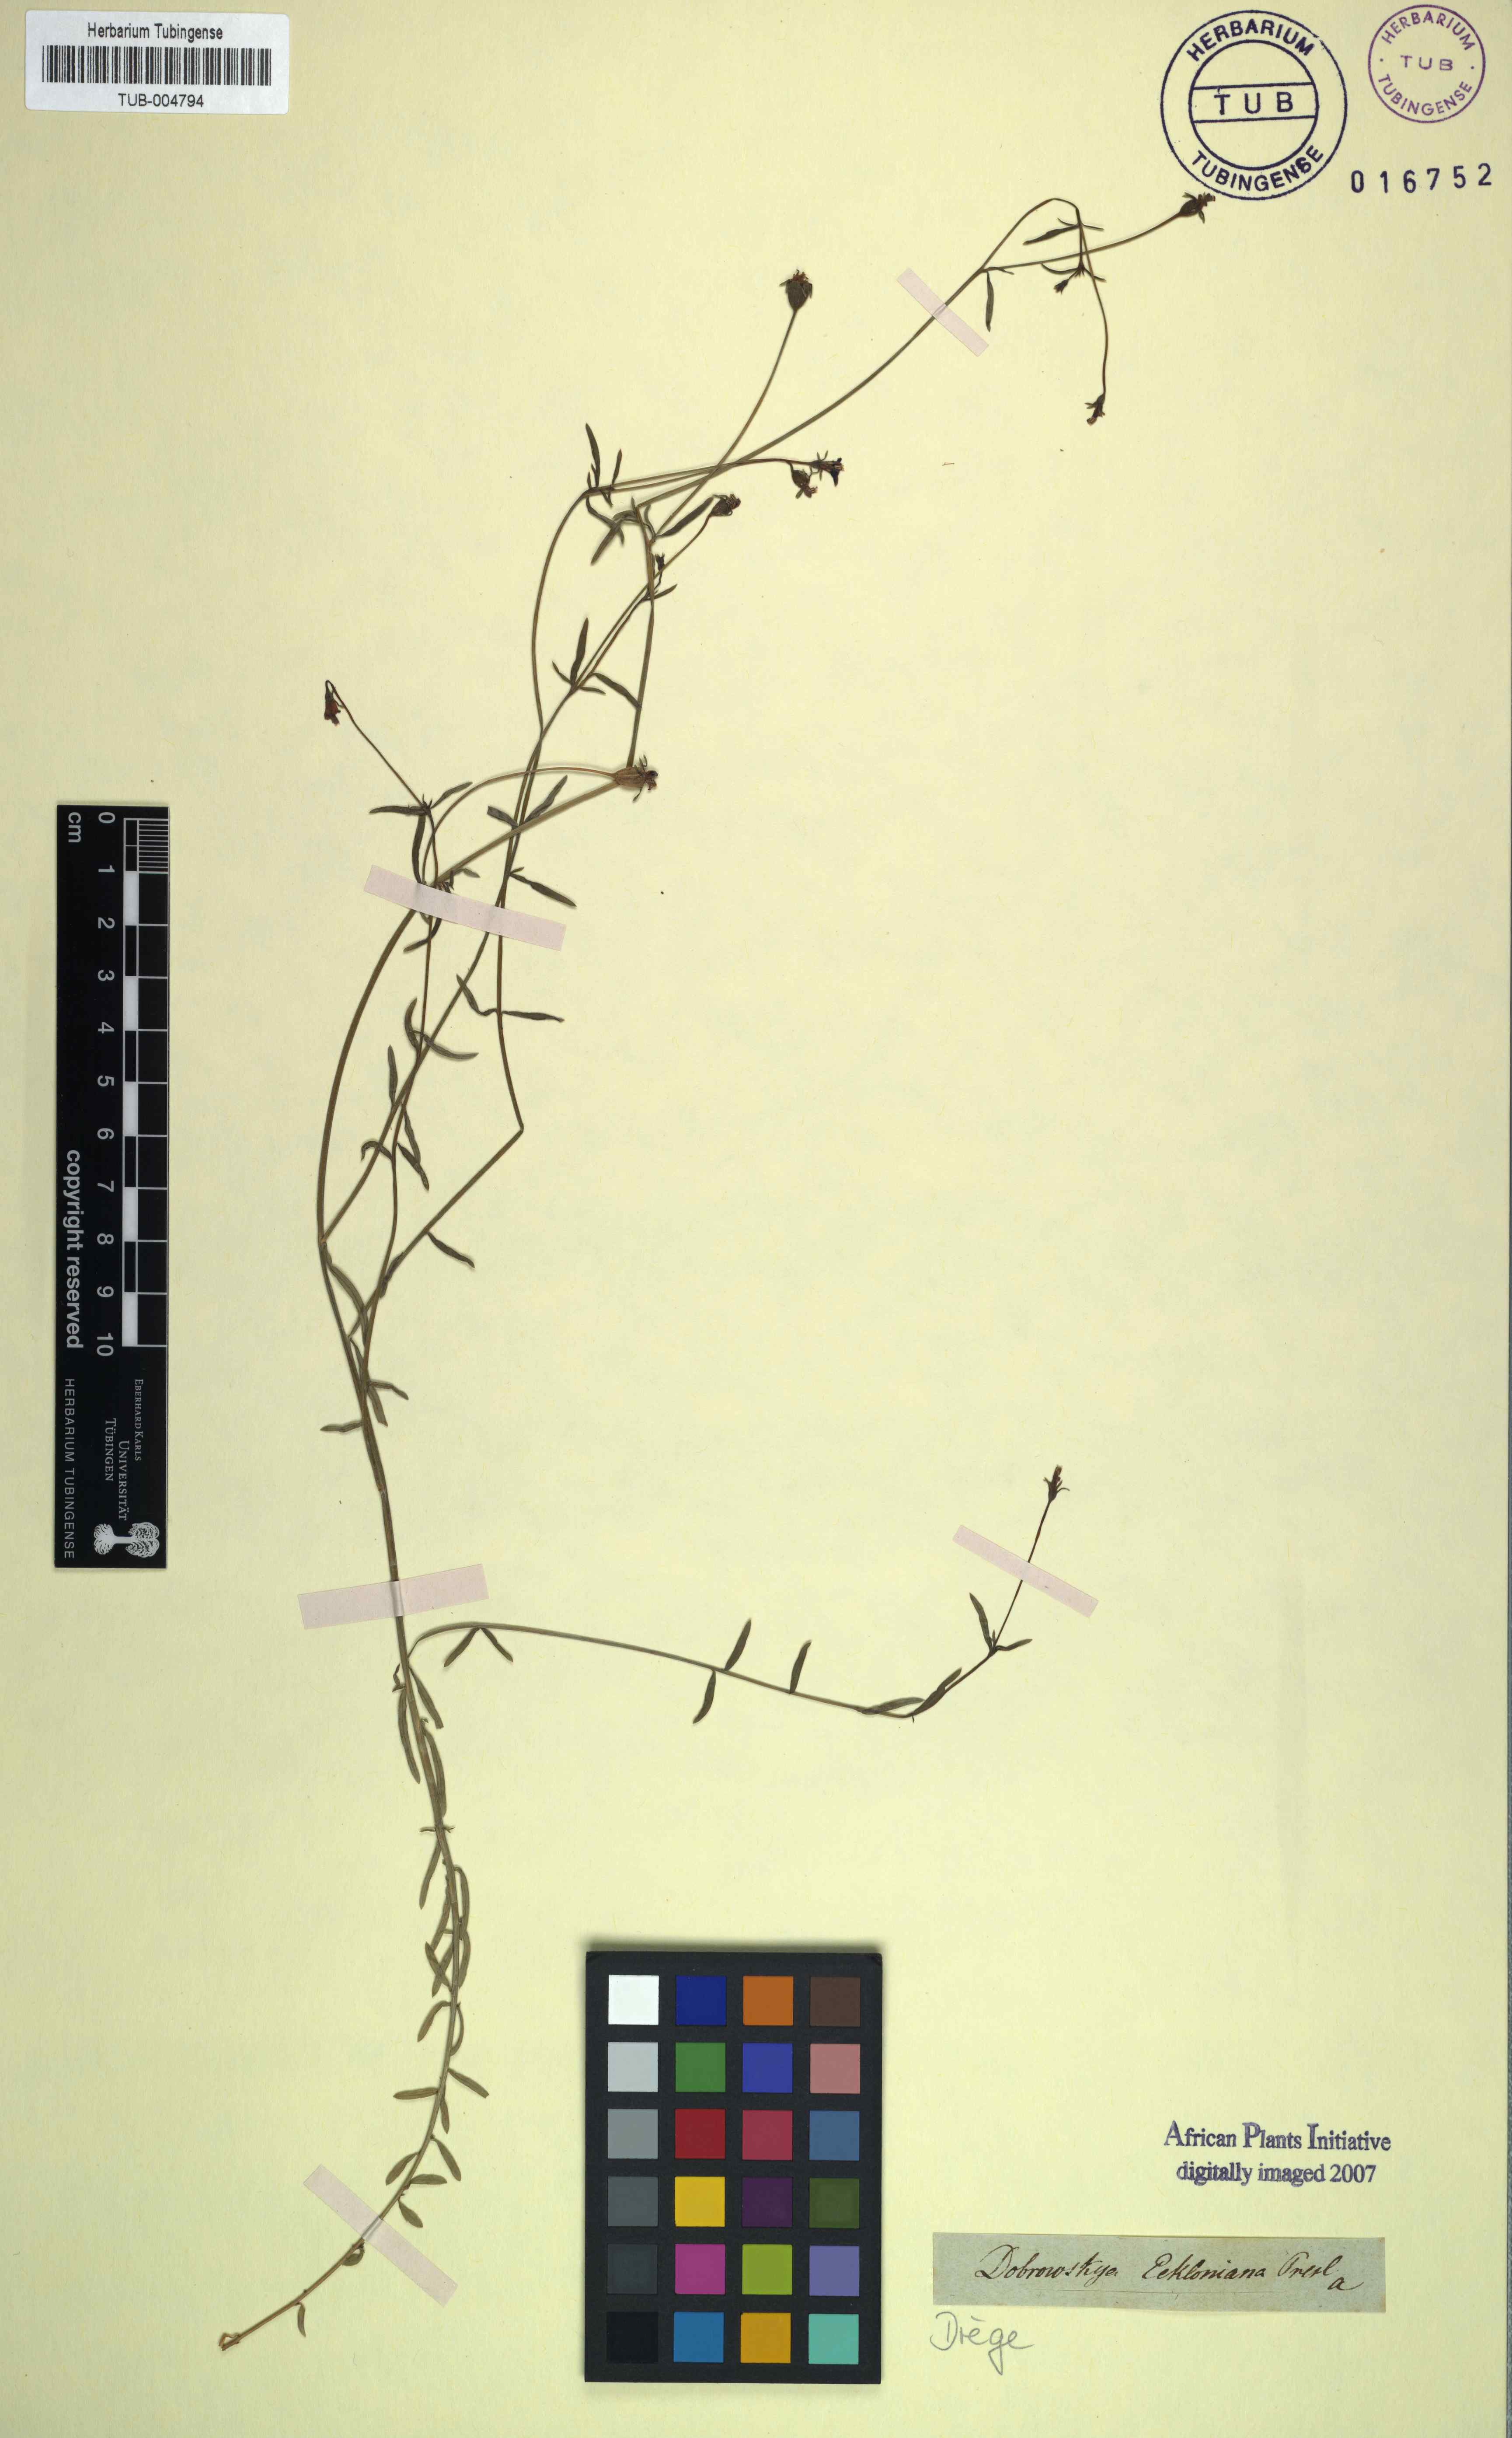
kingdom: Plantae
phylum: Tracheophyta
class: Magnoliopsida
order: Asterales
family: Campanulaceae
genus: Monopsis
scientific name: Monopsis simplex
